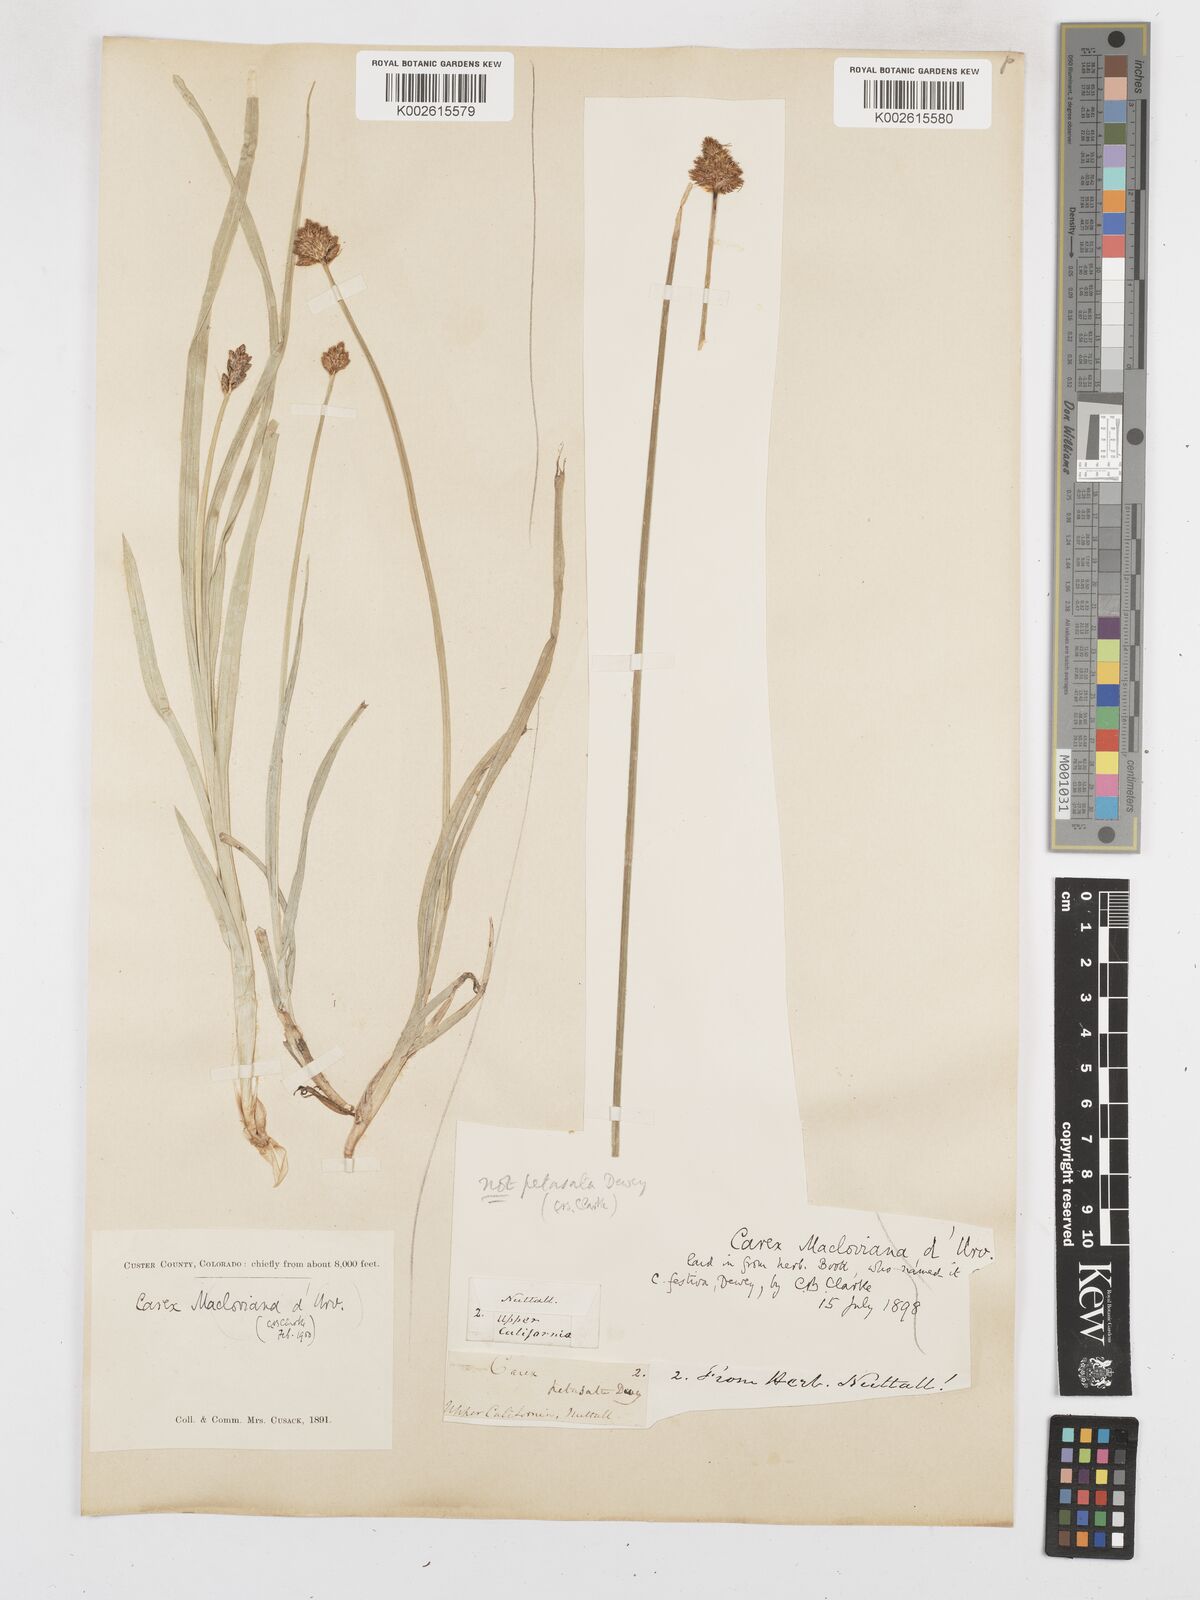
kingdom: Plantae
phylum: Tracheophyta
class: Liliopsida
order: Poales
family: Cyperaceae
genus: Carex
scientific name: Carex macloviana
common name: Falkland island sedge
